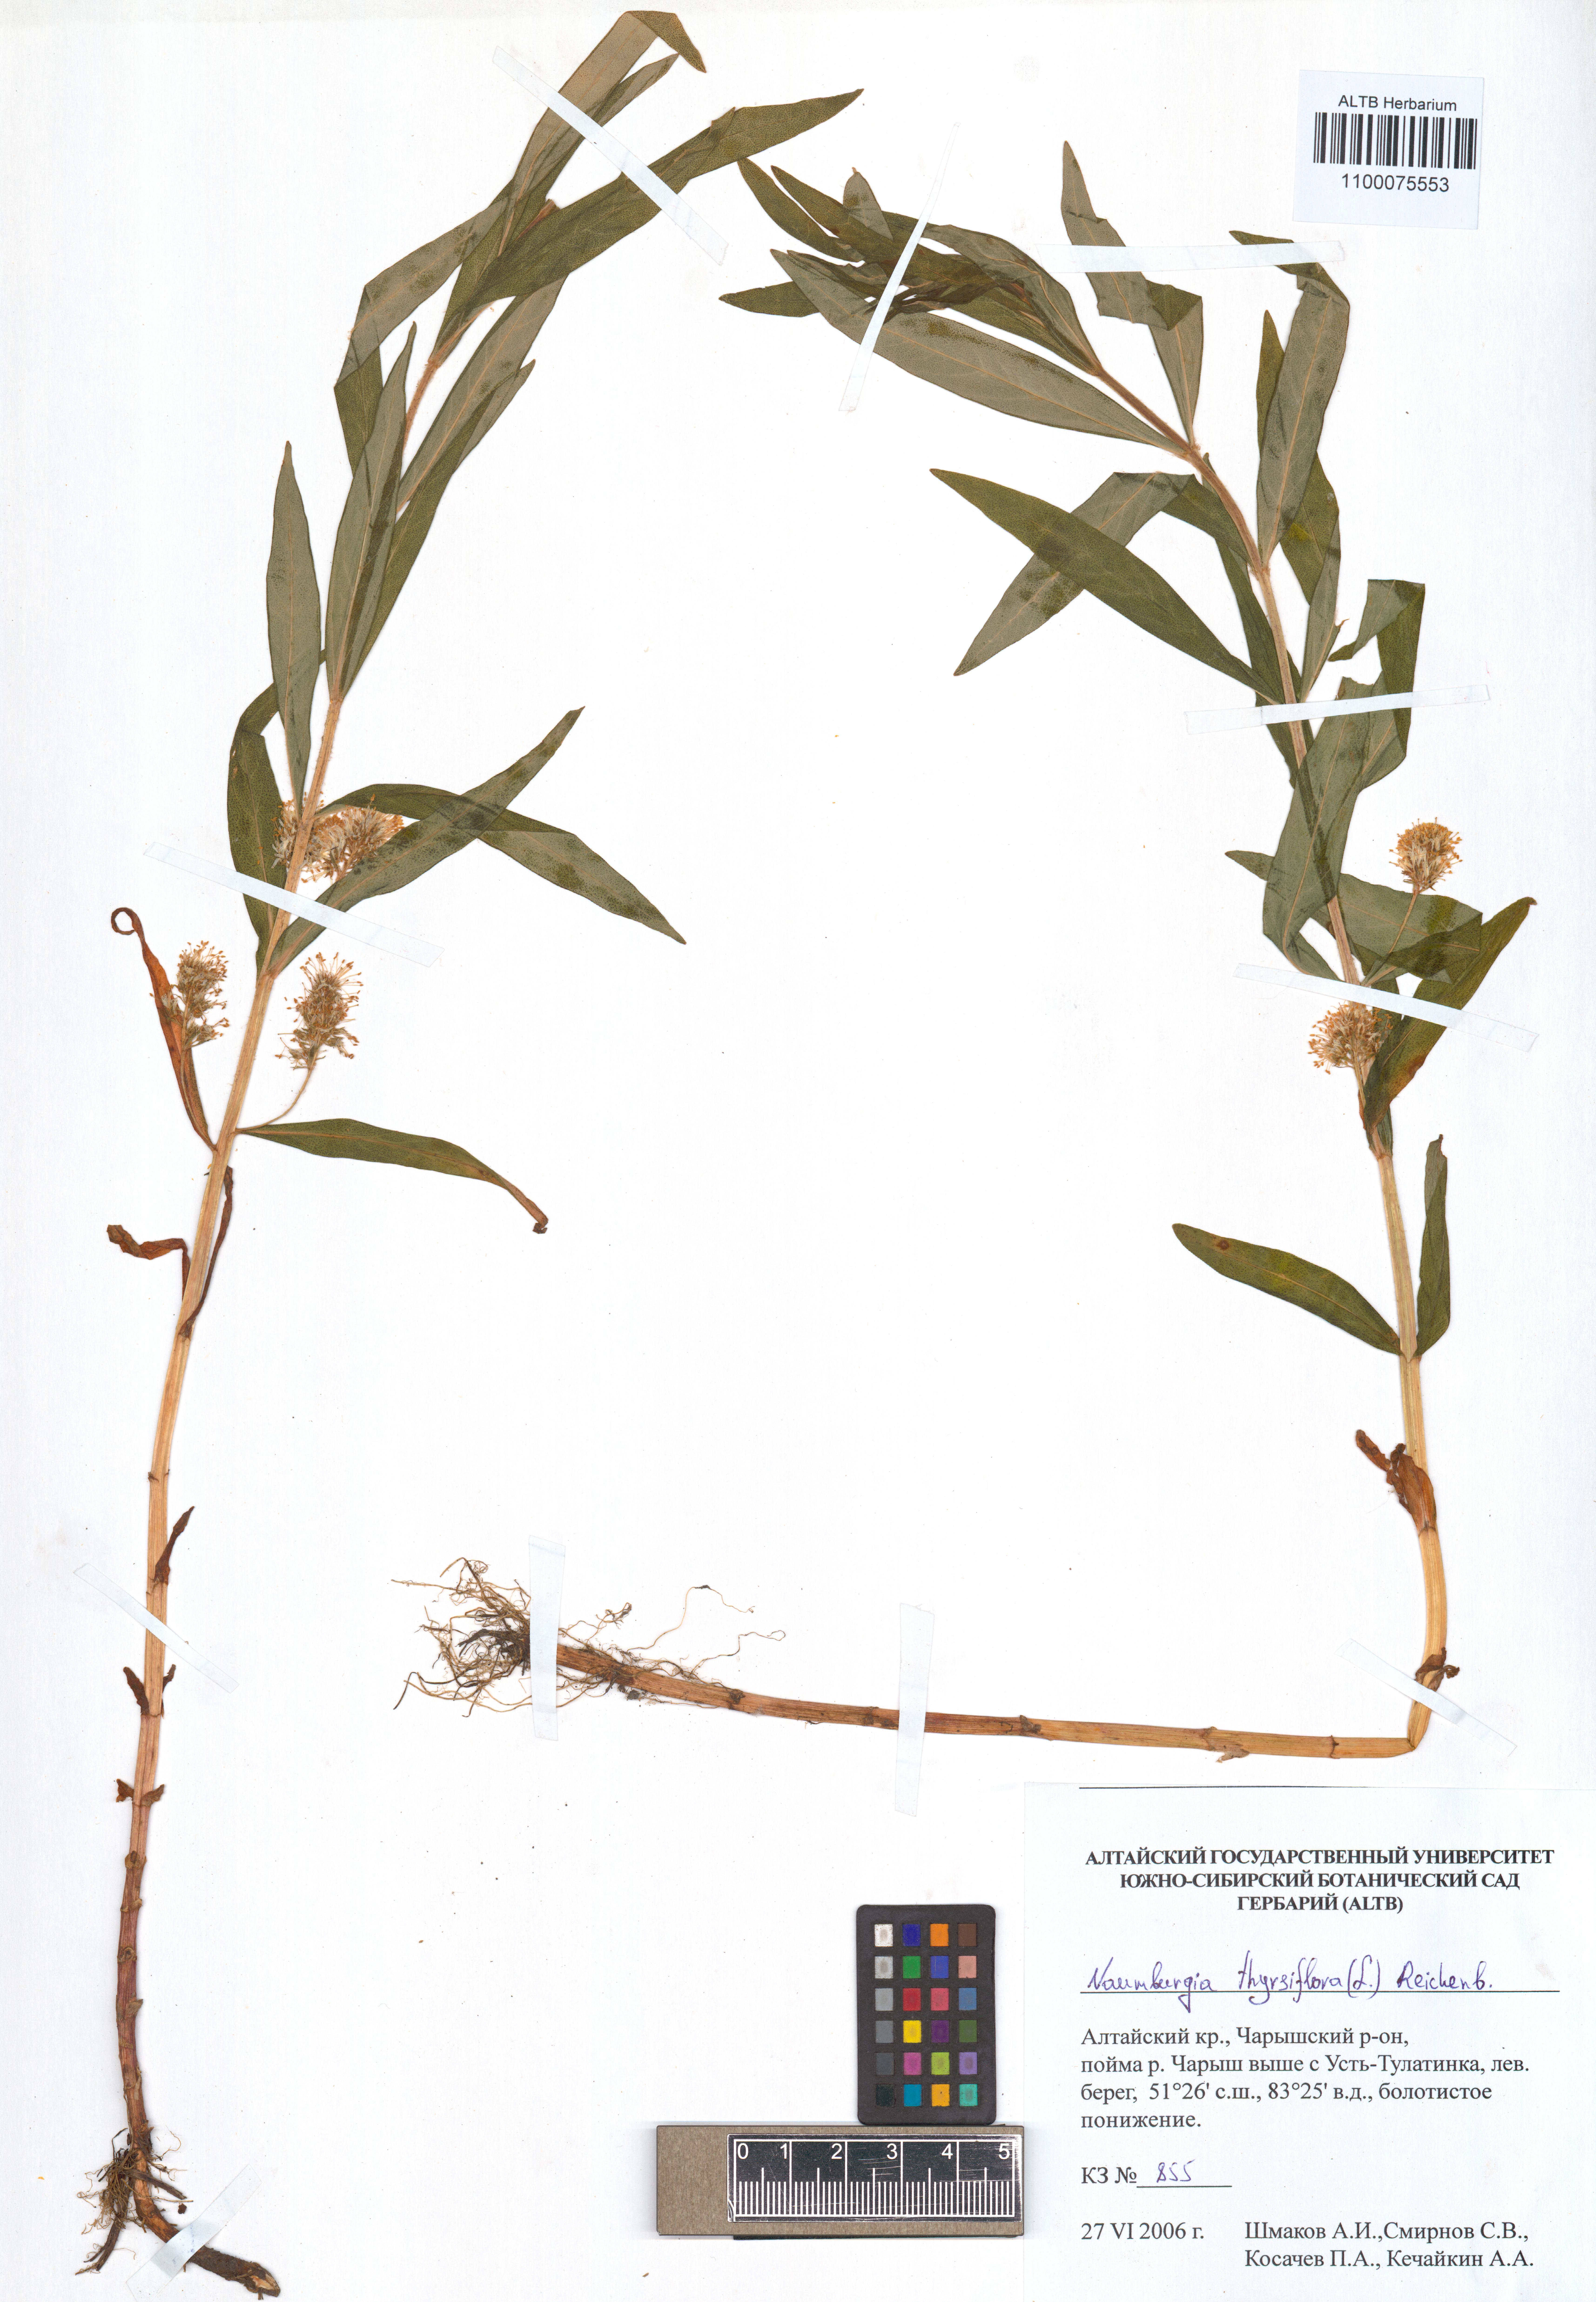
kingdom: Plantae
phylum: Tracheophyta
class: Magnoliopsida
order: Ericales
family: Primulaceae
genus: Lysimachia
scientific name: Lysimachia thyrsiflora
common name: Tufted loosestrife
